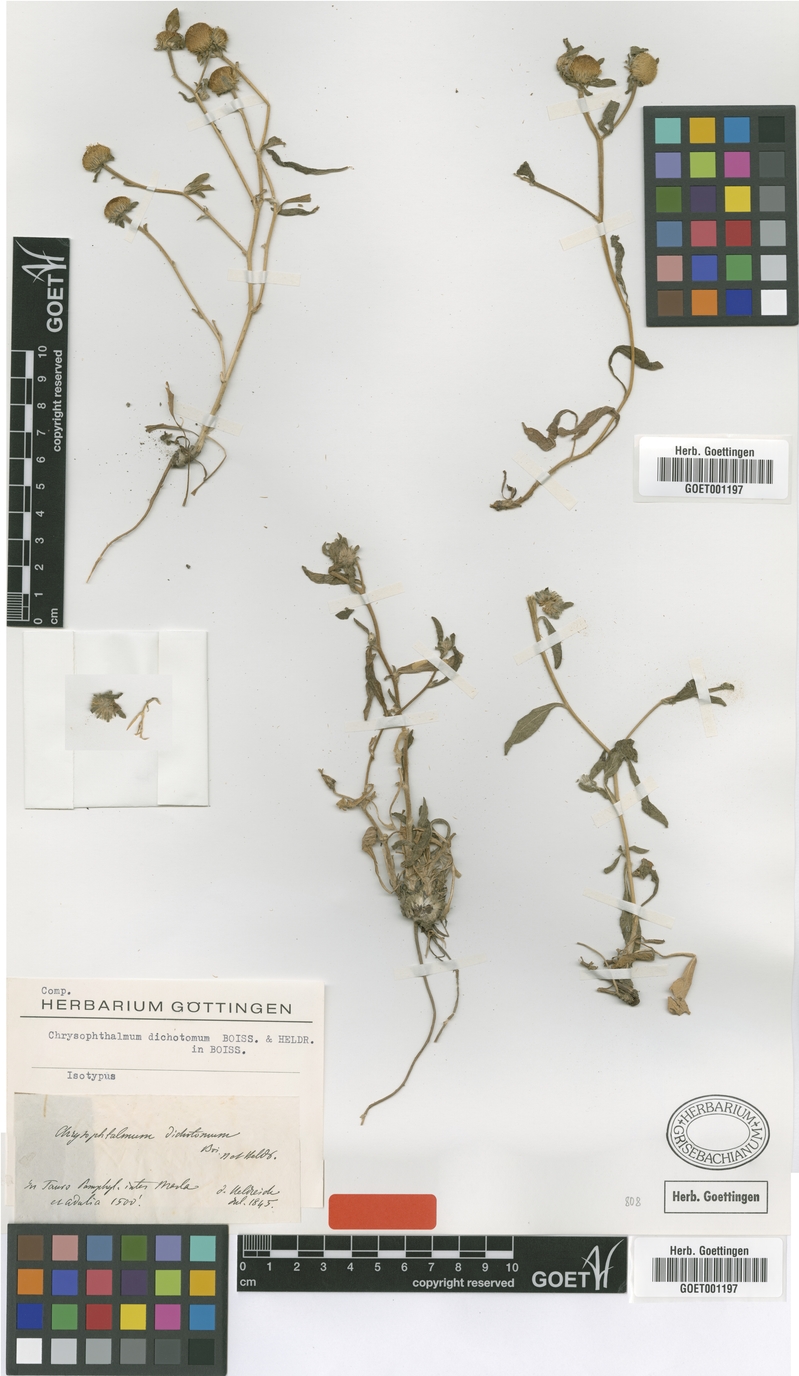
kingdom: Plantae
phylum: Tracheophyta
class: Magnoliopsida
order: Asterales
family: Asteraceae
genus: Chrysophthalmum
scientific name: Chrysophthalmum dichotomum
